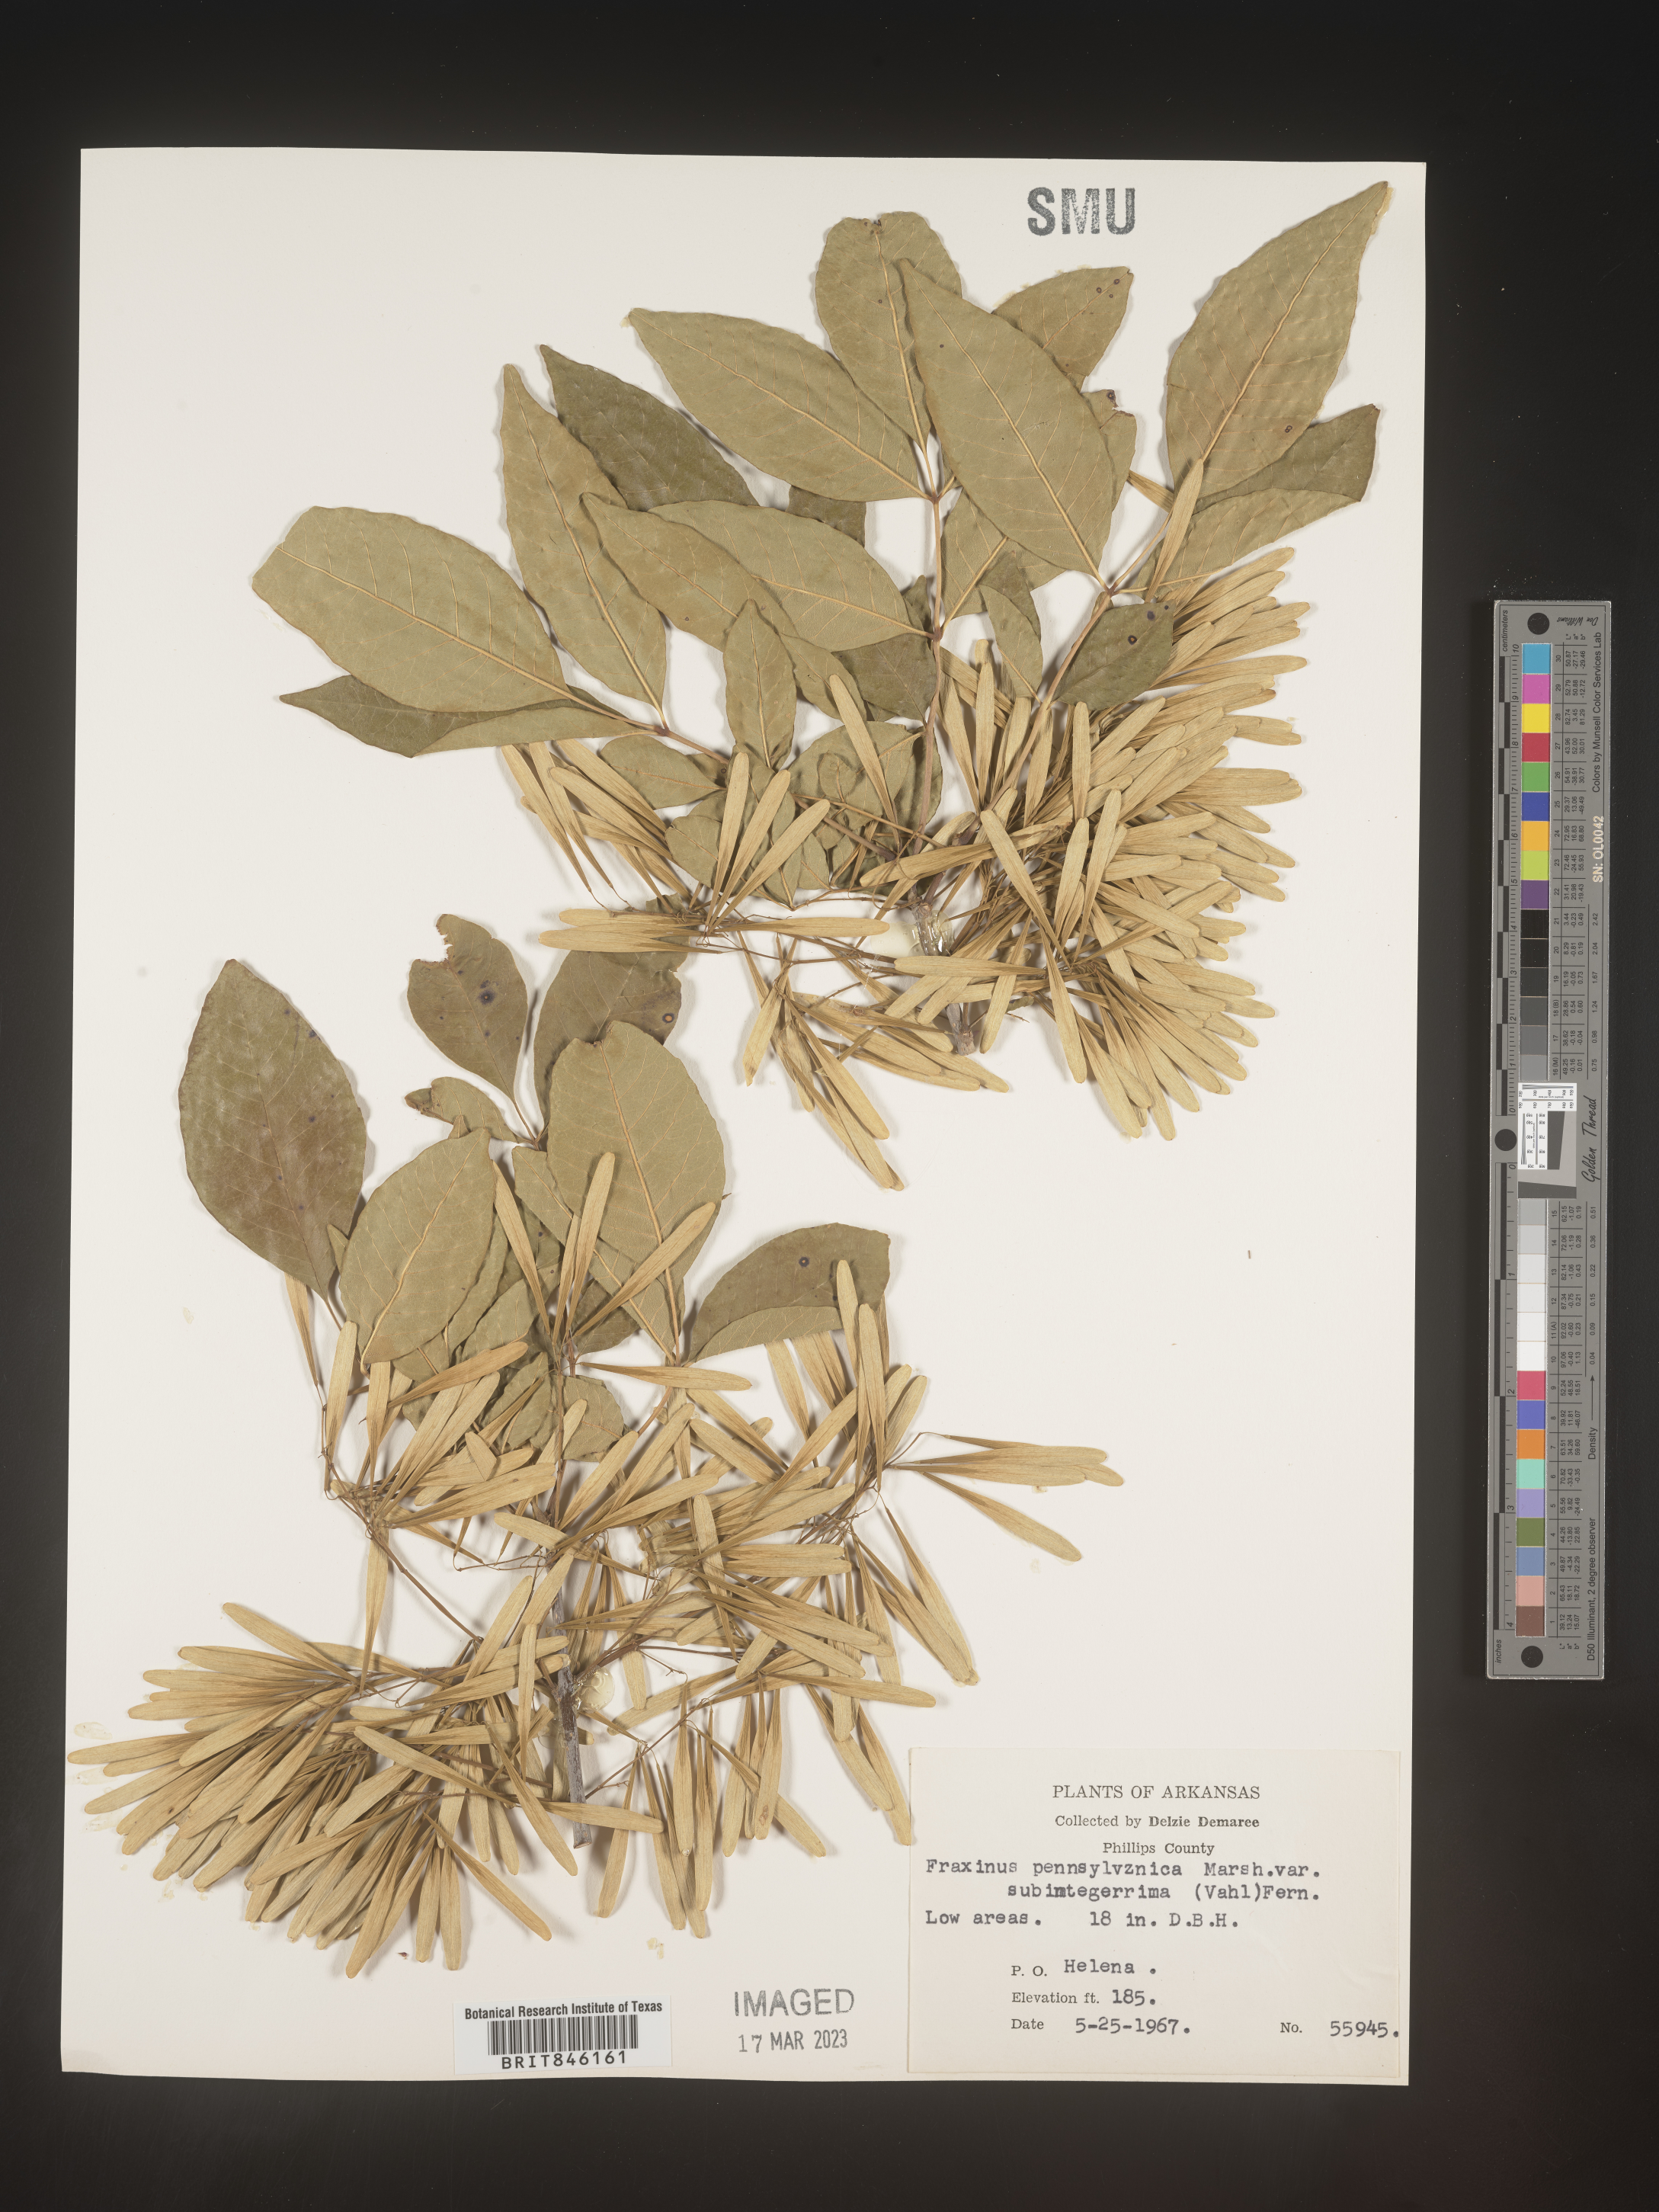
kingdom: Plantae
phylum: Tracheophyta
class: Magnoliopsida
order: Lamiales
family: Oleaceae
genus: Fraxinus
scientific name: Fraxinus pennsylvanica
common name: Green ash
